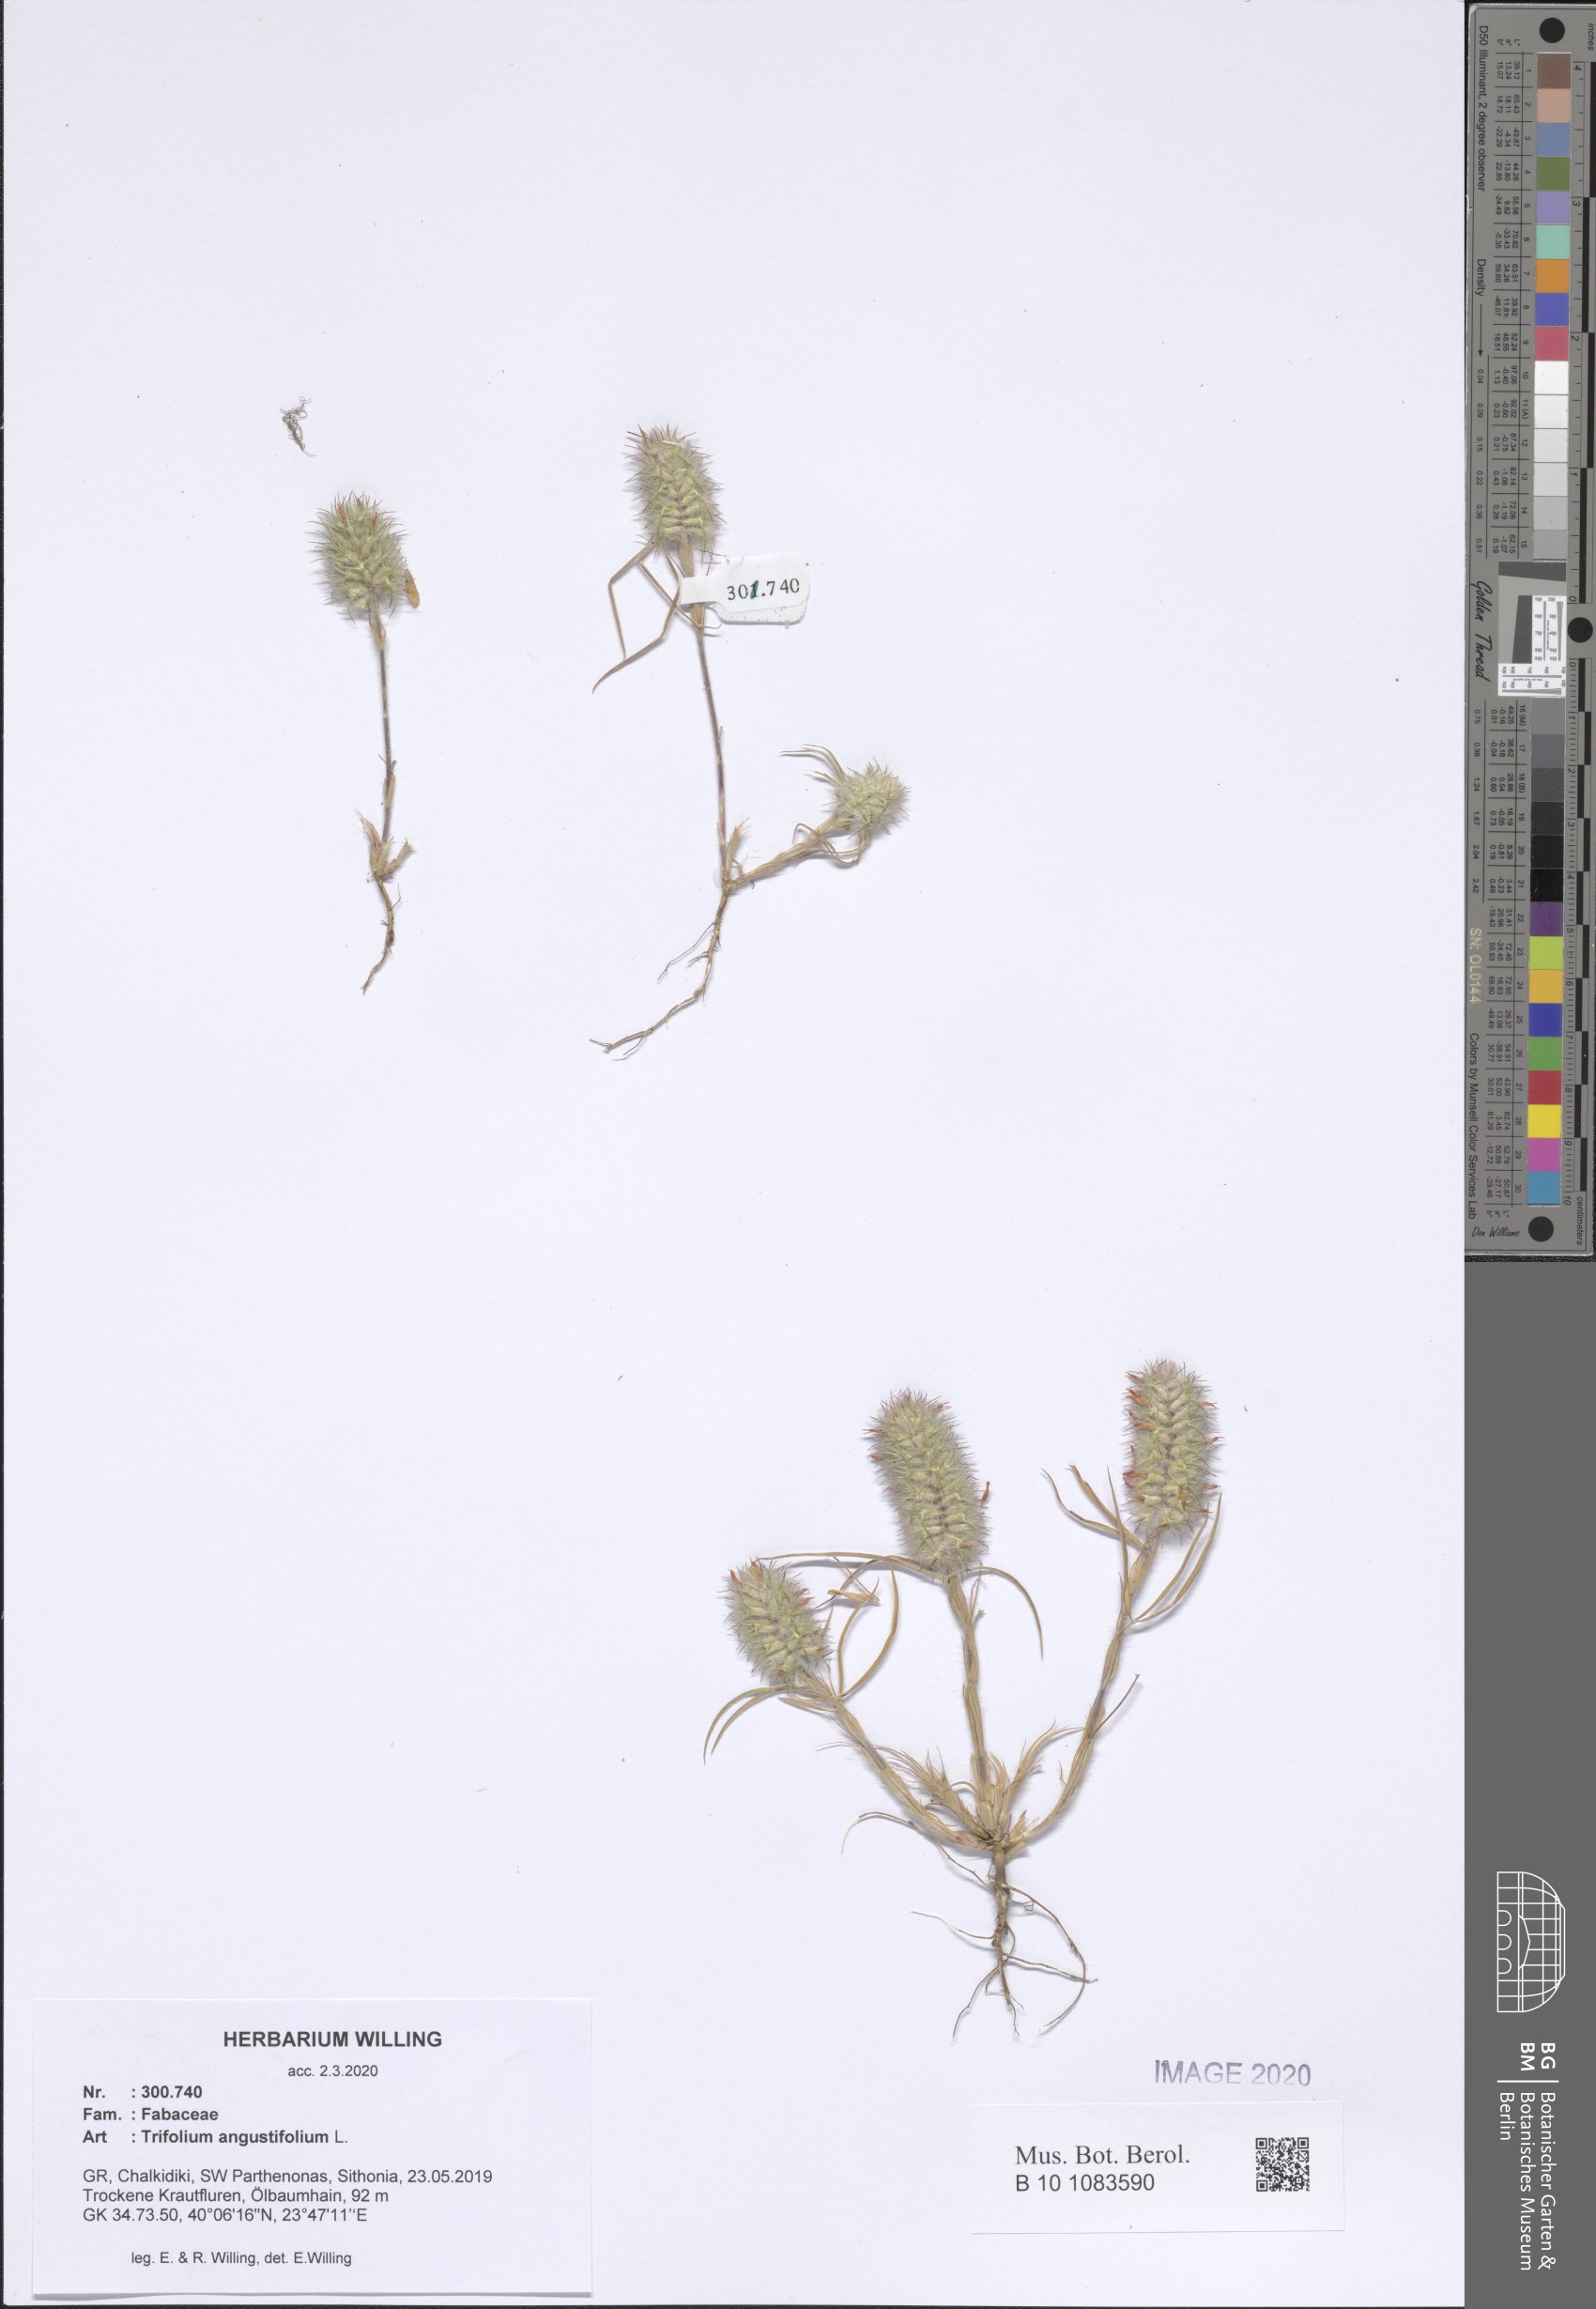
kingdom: Plantae
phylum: Tracheophyta
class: Magnoliopsida
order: Fabales
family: Fabaceae
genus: Trifolium
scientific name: Trifolium angustifolium
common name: Narrow clover
